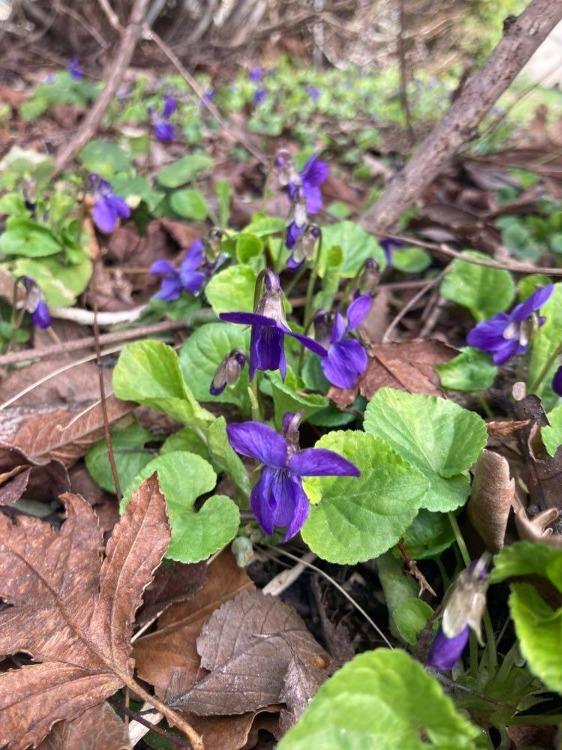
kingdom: Plantae
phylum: Tracheophyta
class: Magnoliopsida
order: Malpighiales
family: Violaceae
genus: Viola
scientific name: Viola odorata
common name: Marts-viol
